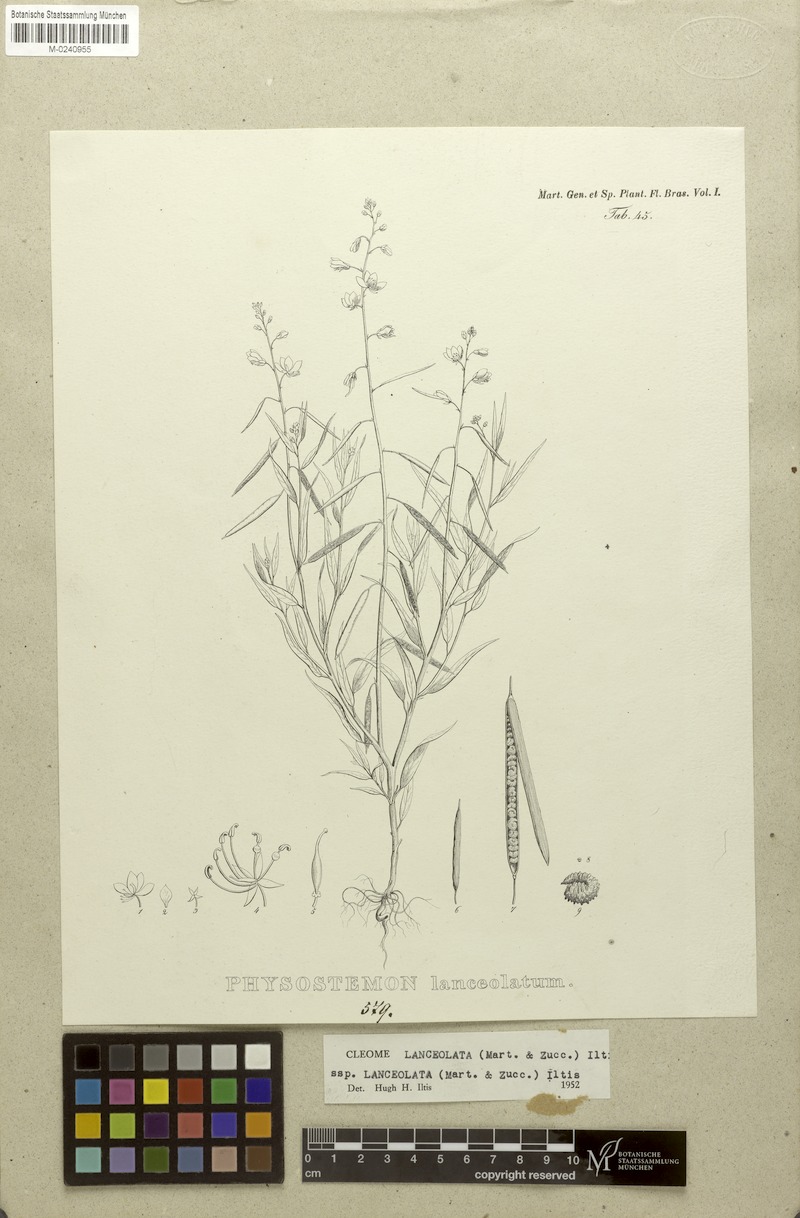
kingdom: Plantae
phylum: Tracheophyta
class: Magnoliopsida
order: Brassicales
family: Cleomaceae
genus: Physostemon
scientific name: Physostemon lanceolatus
